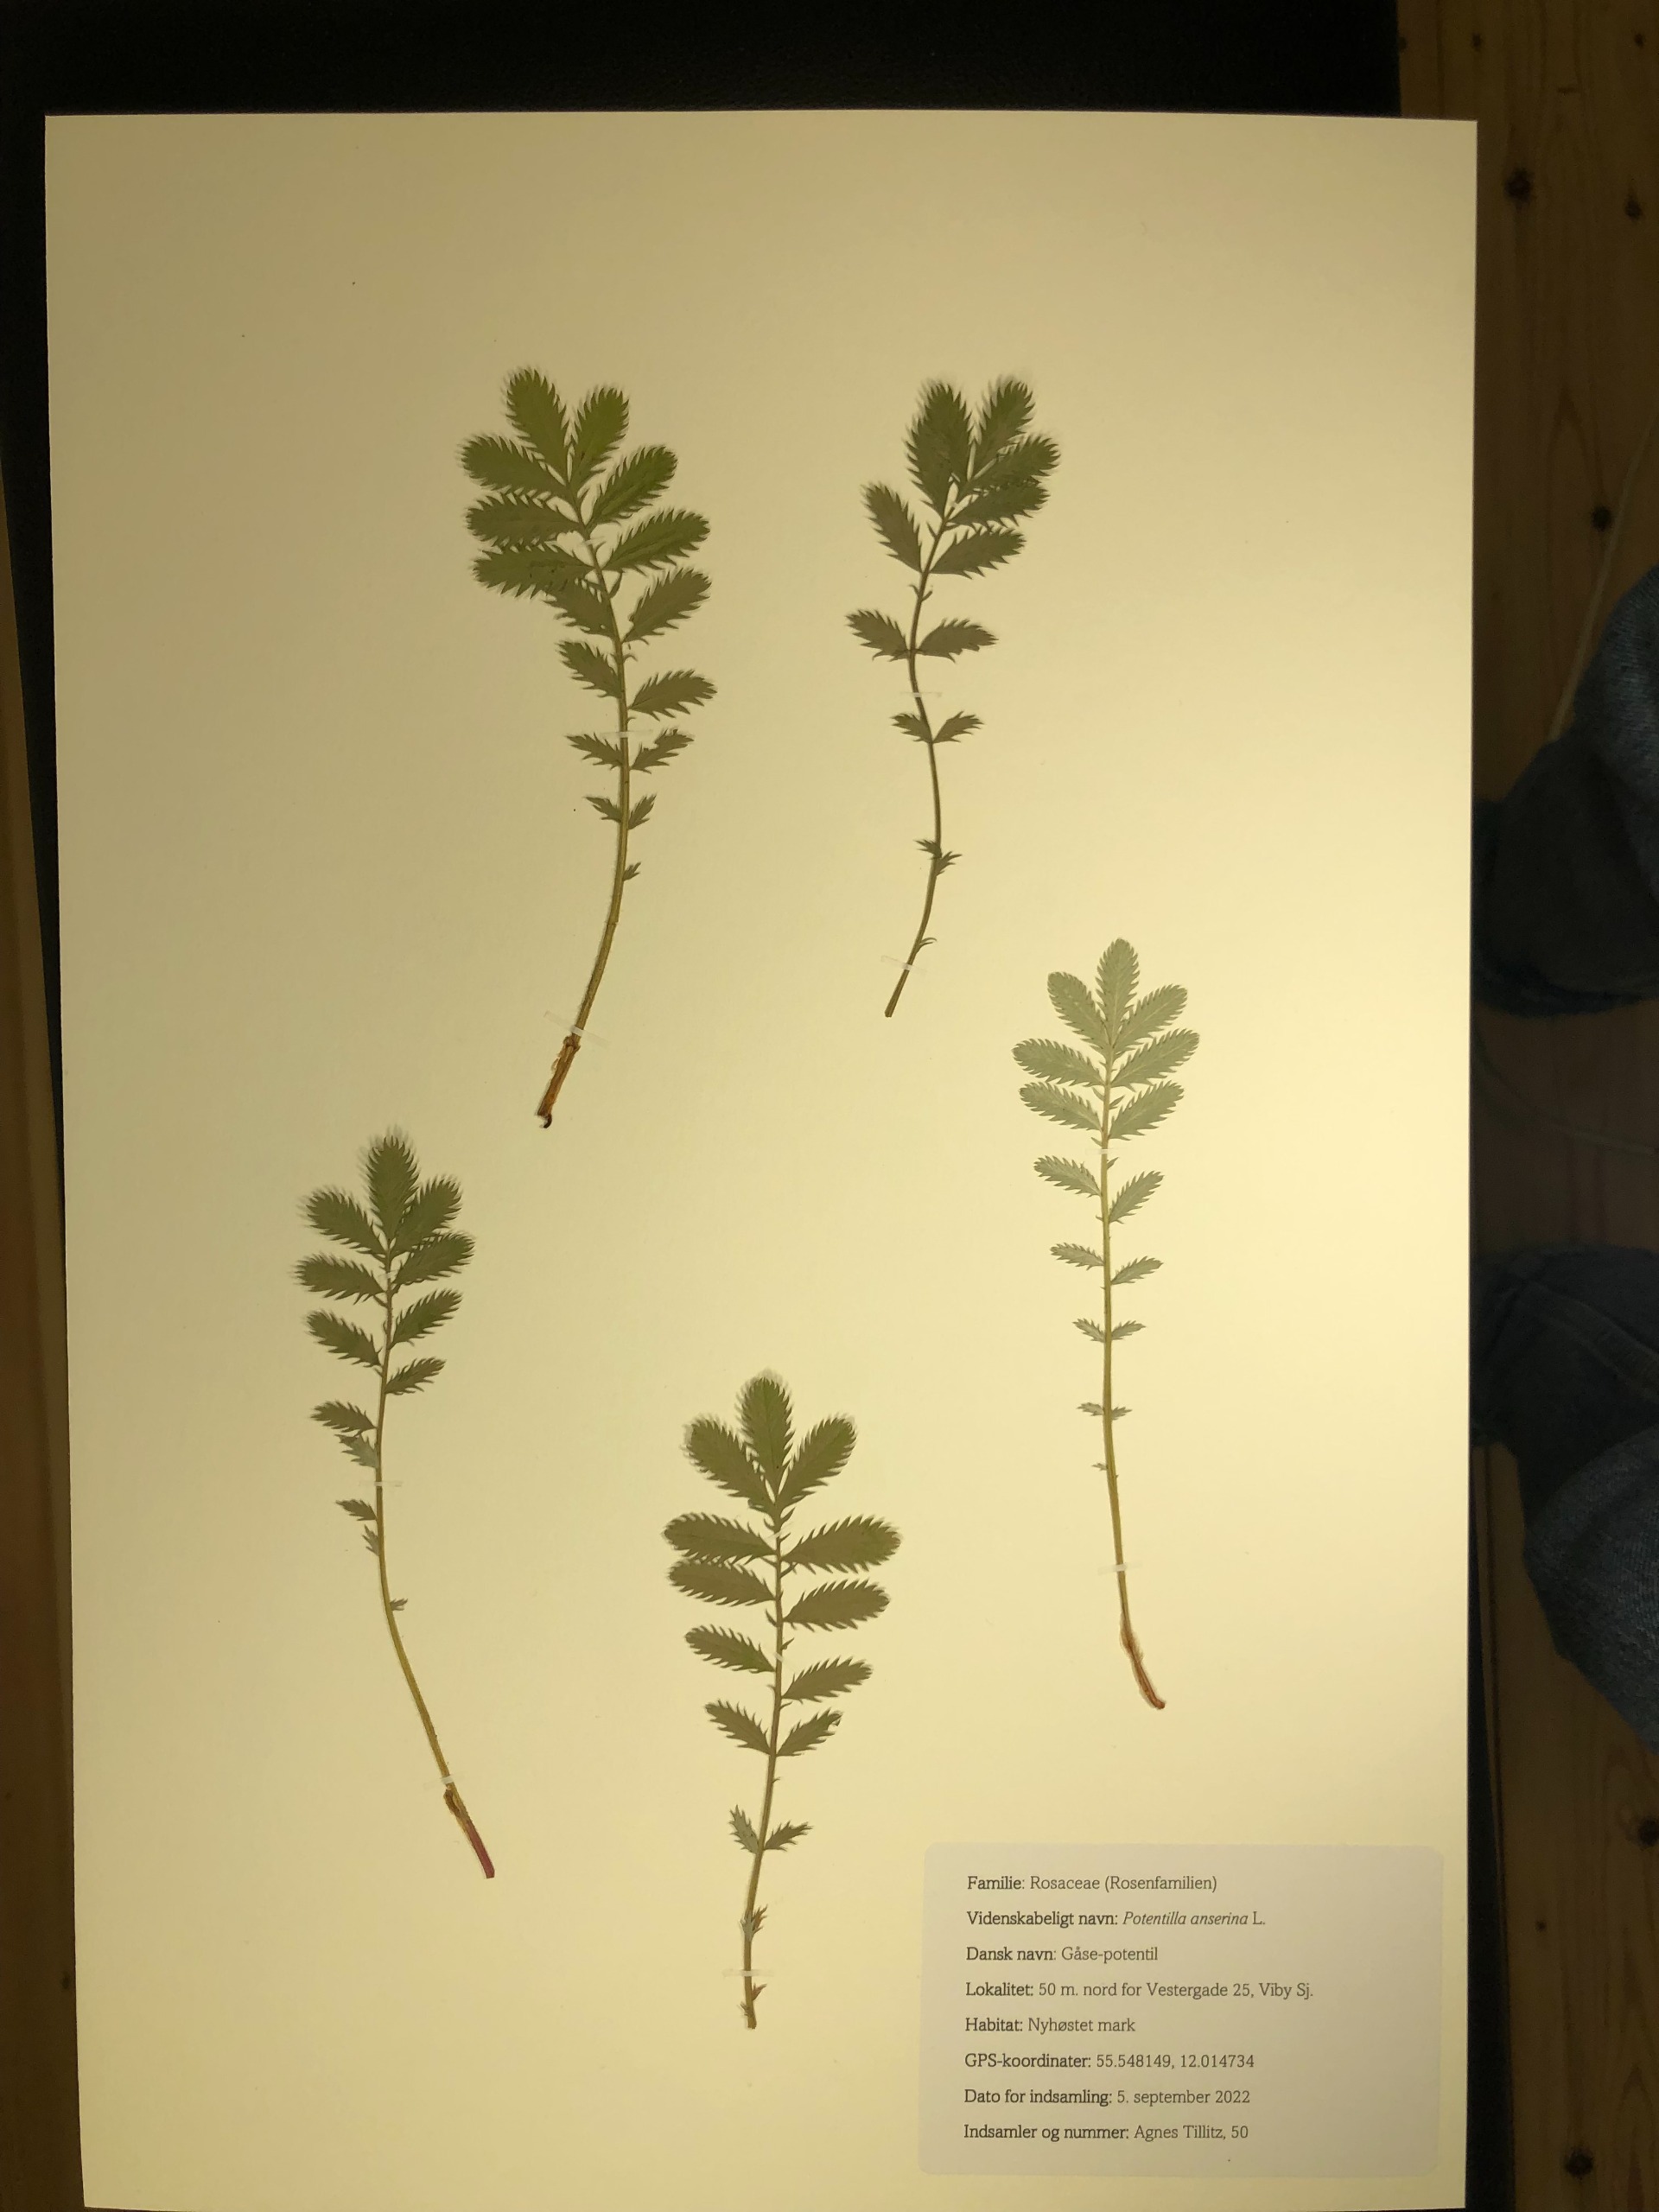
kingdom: Plantae
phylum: Tracheophyta
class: Magnoliopsida
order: Rosales
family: Rosaceae
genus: Argentina
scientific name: Argentina anserina
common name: Gåsepotentil
